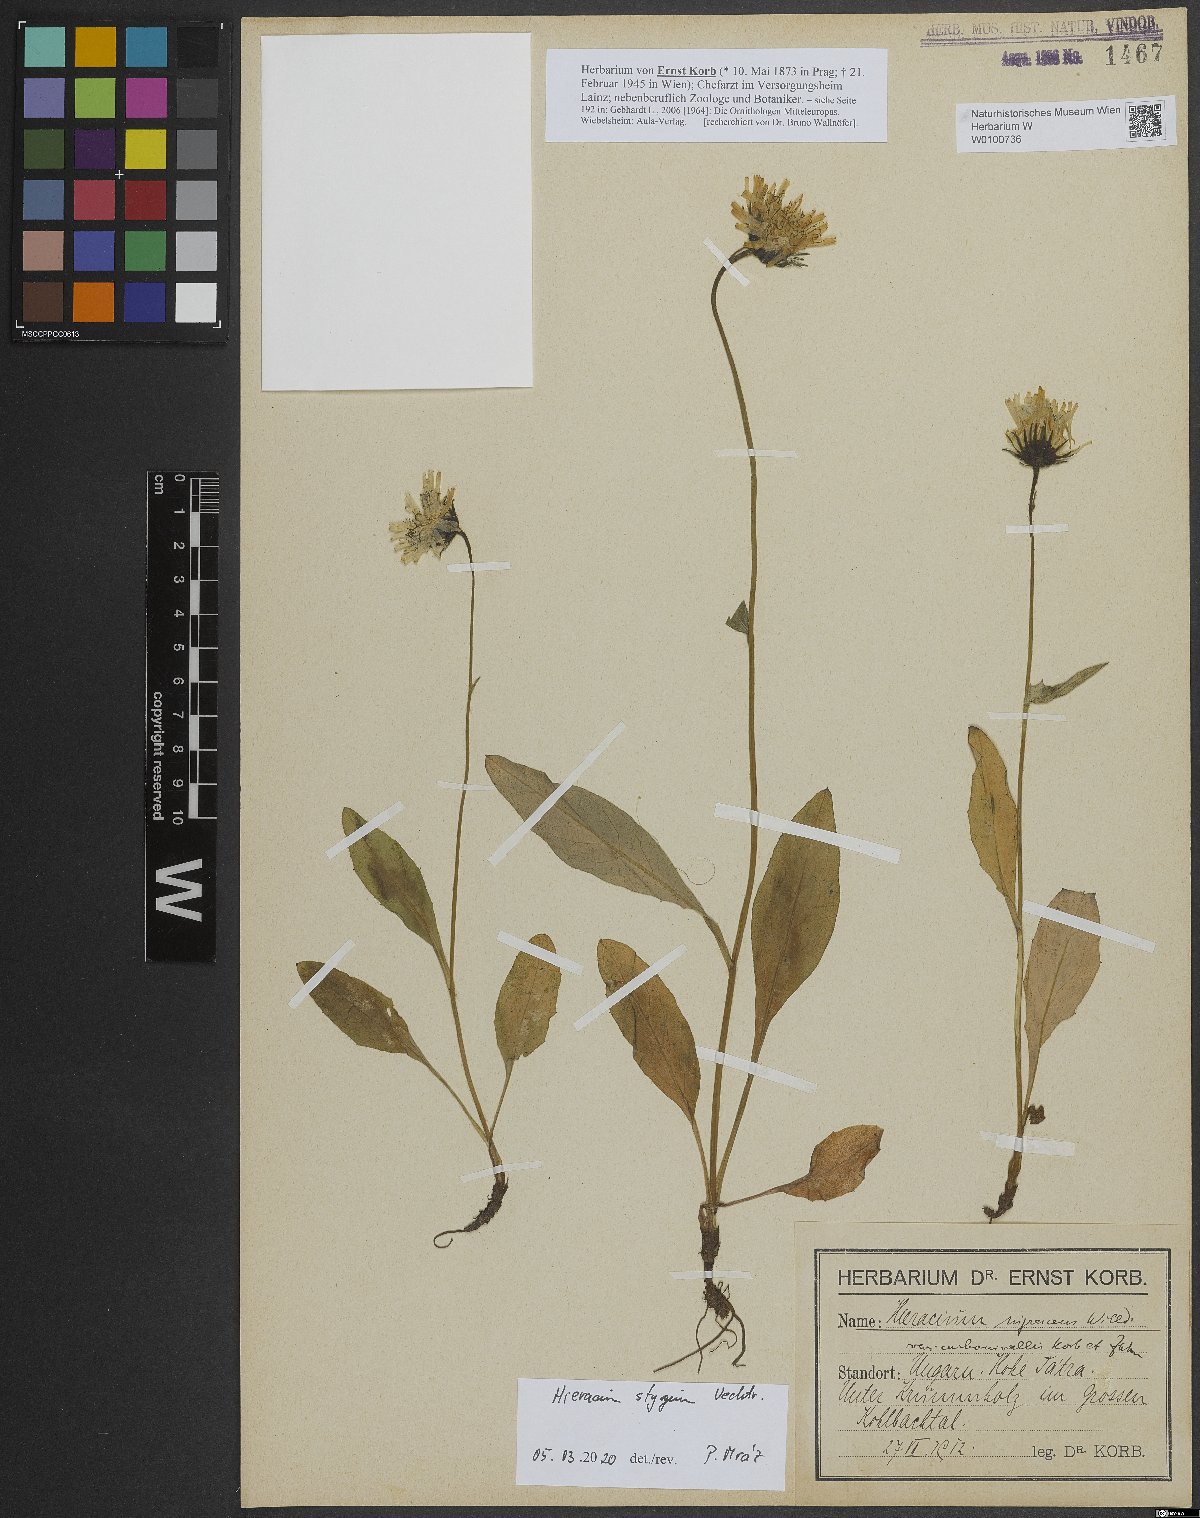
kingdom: Plantae
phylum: Tracheophyta
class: Magnoliopsida
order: Asterales
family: Asteraceae
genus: Hieracium
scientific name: Hieracium chlorocephalum
